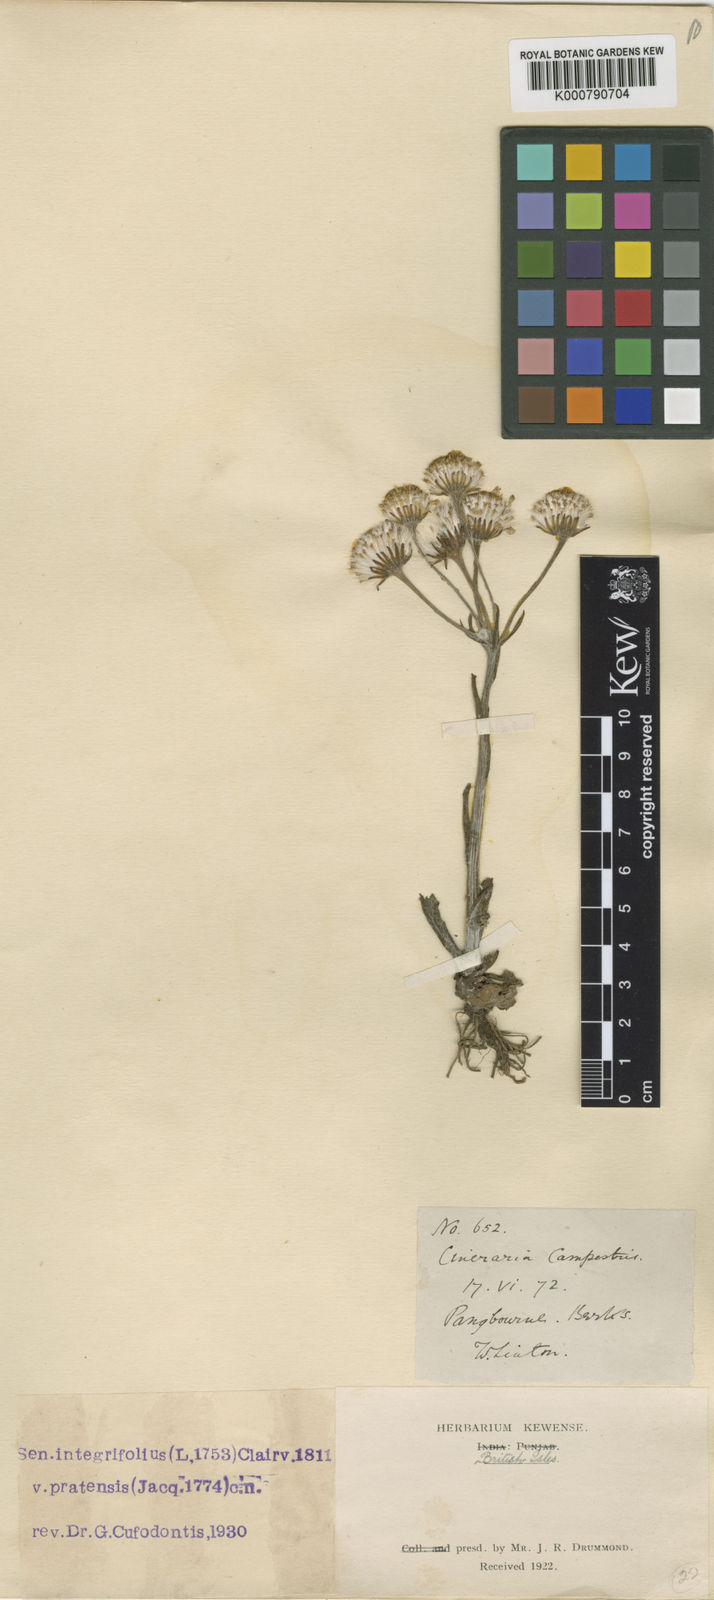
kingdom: Plantae
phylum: Tracheophyta
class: Magnoliopsida
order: Asterales
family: Asteraceae
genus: Tephroseris
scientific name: Tephroseris integrifolia
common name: Field fleawort
